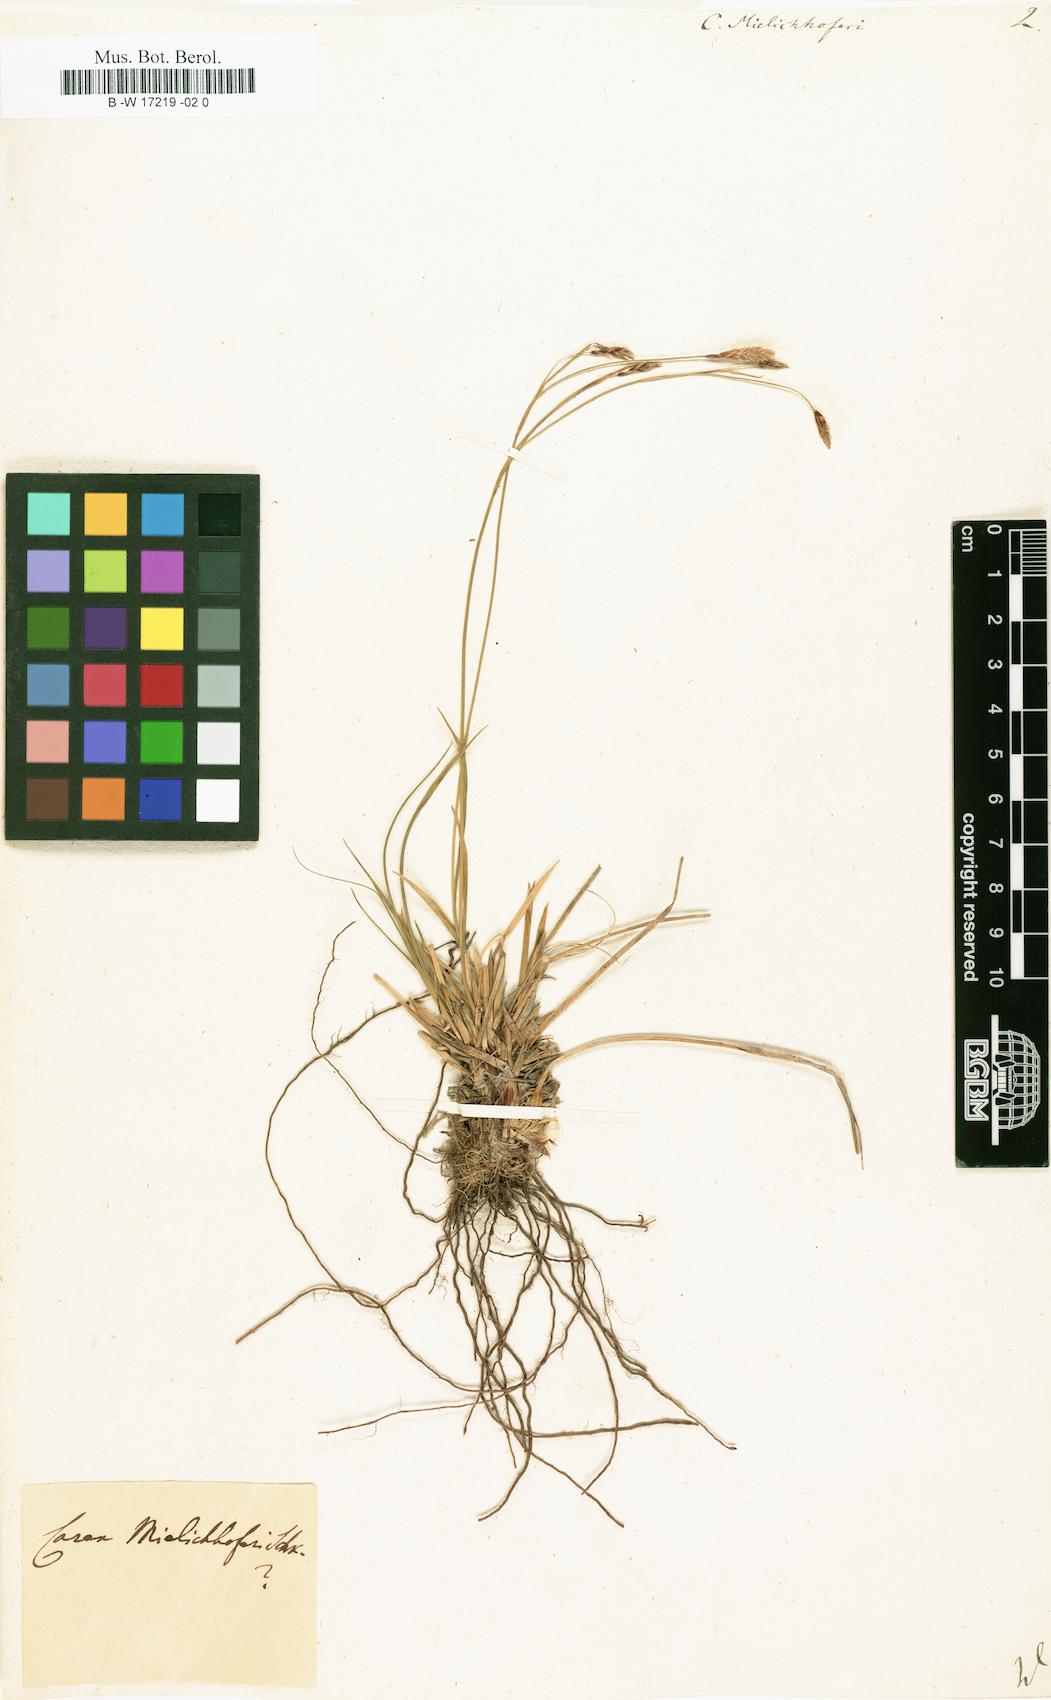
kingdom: Plantae
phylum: Tracheophyta
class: Liliopsida
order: Poales
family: Cyperaceae
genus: Carex
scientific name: Carex ferruginea
